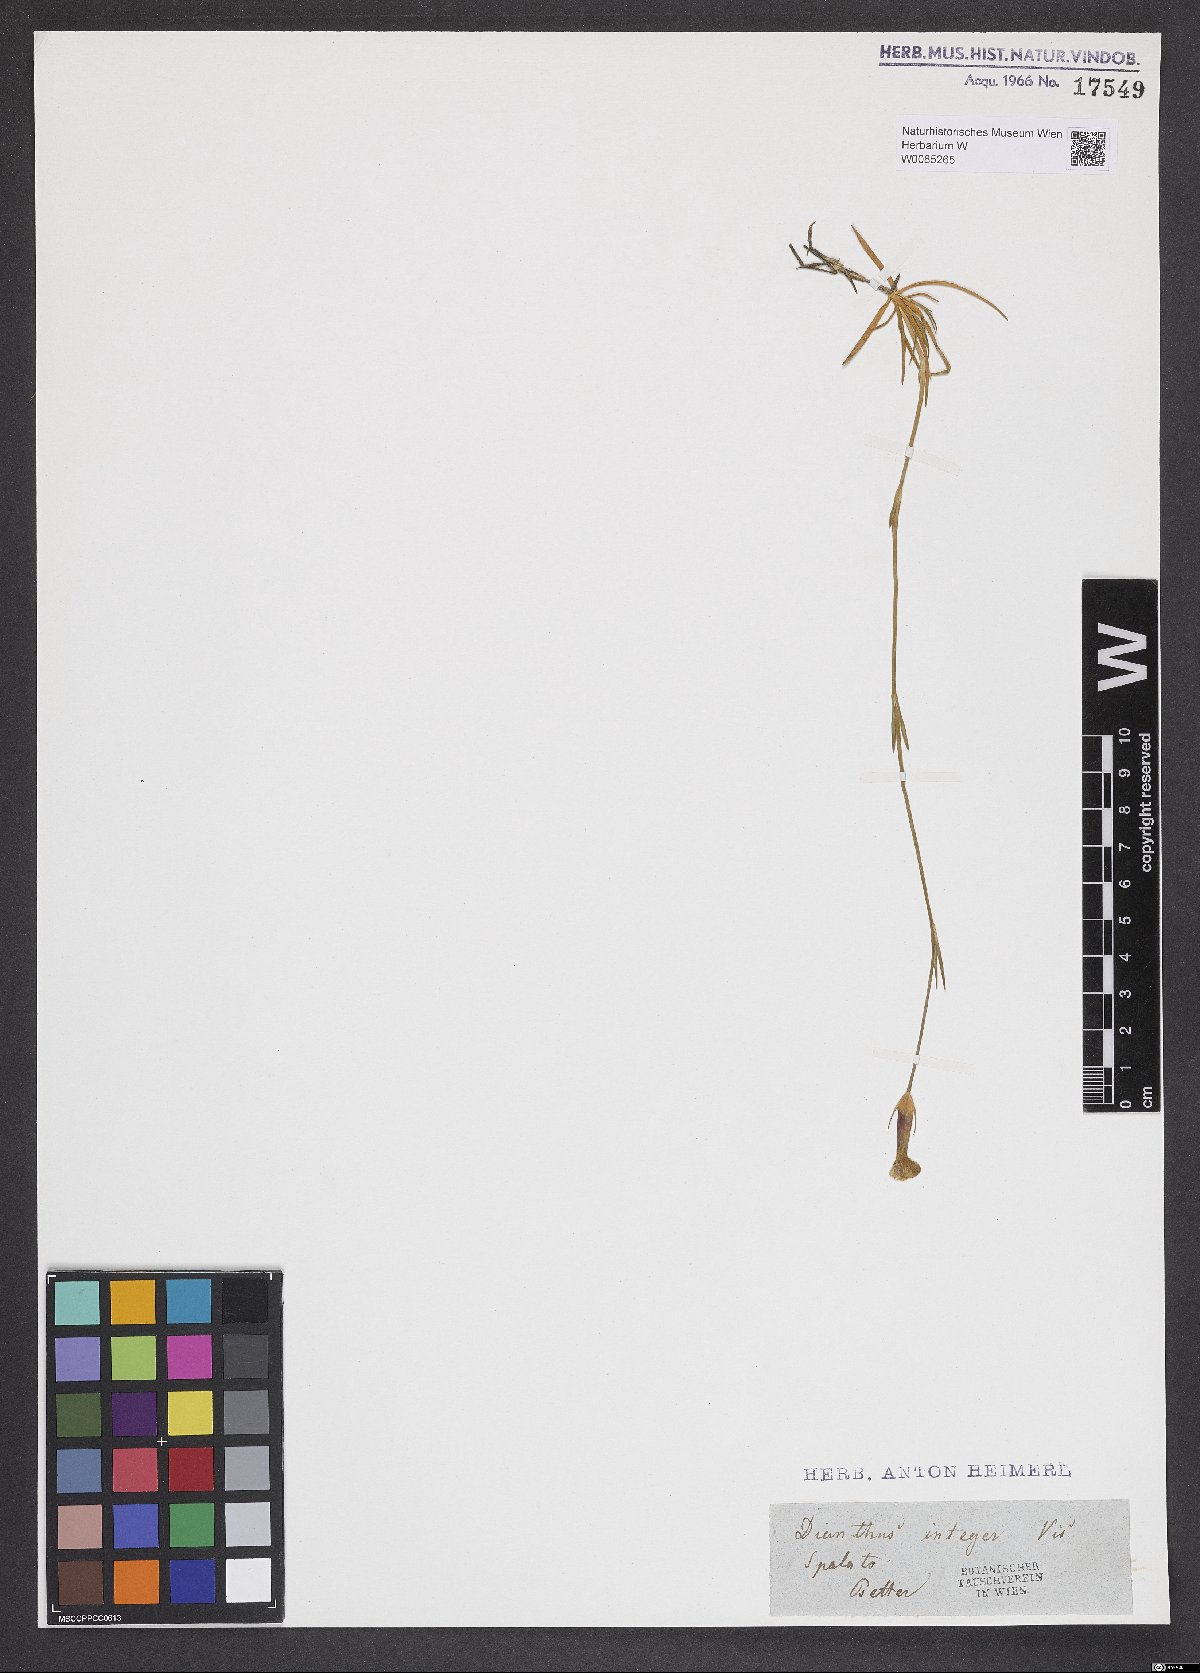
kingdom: Plantae
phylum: Tracheophyta
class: Magnoliopsida
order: Caryophyllales
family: Caryophyllaceae
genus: Dianthus
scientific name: Dianthus petraeus
